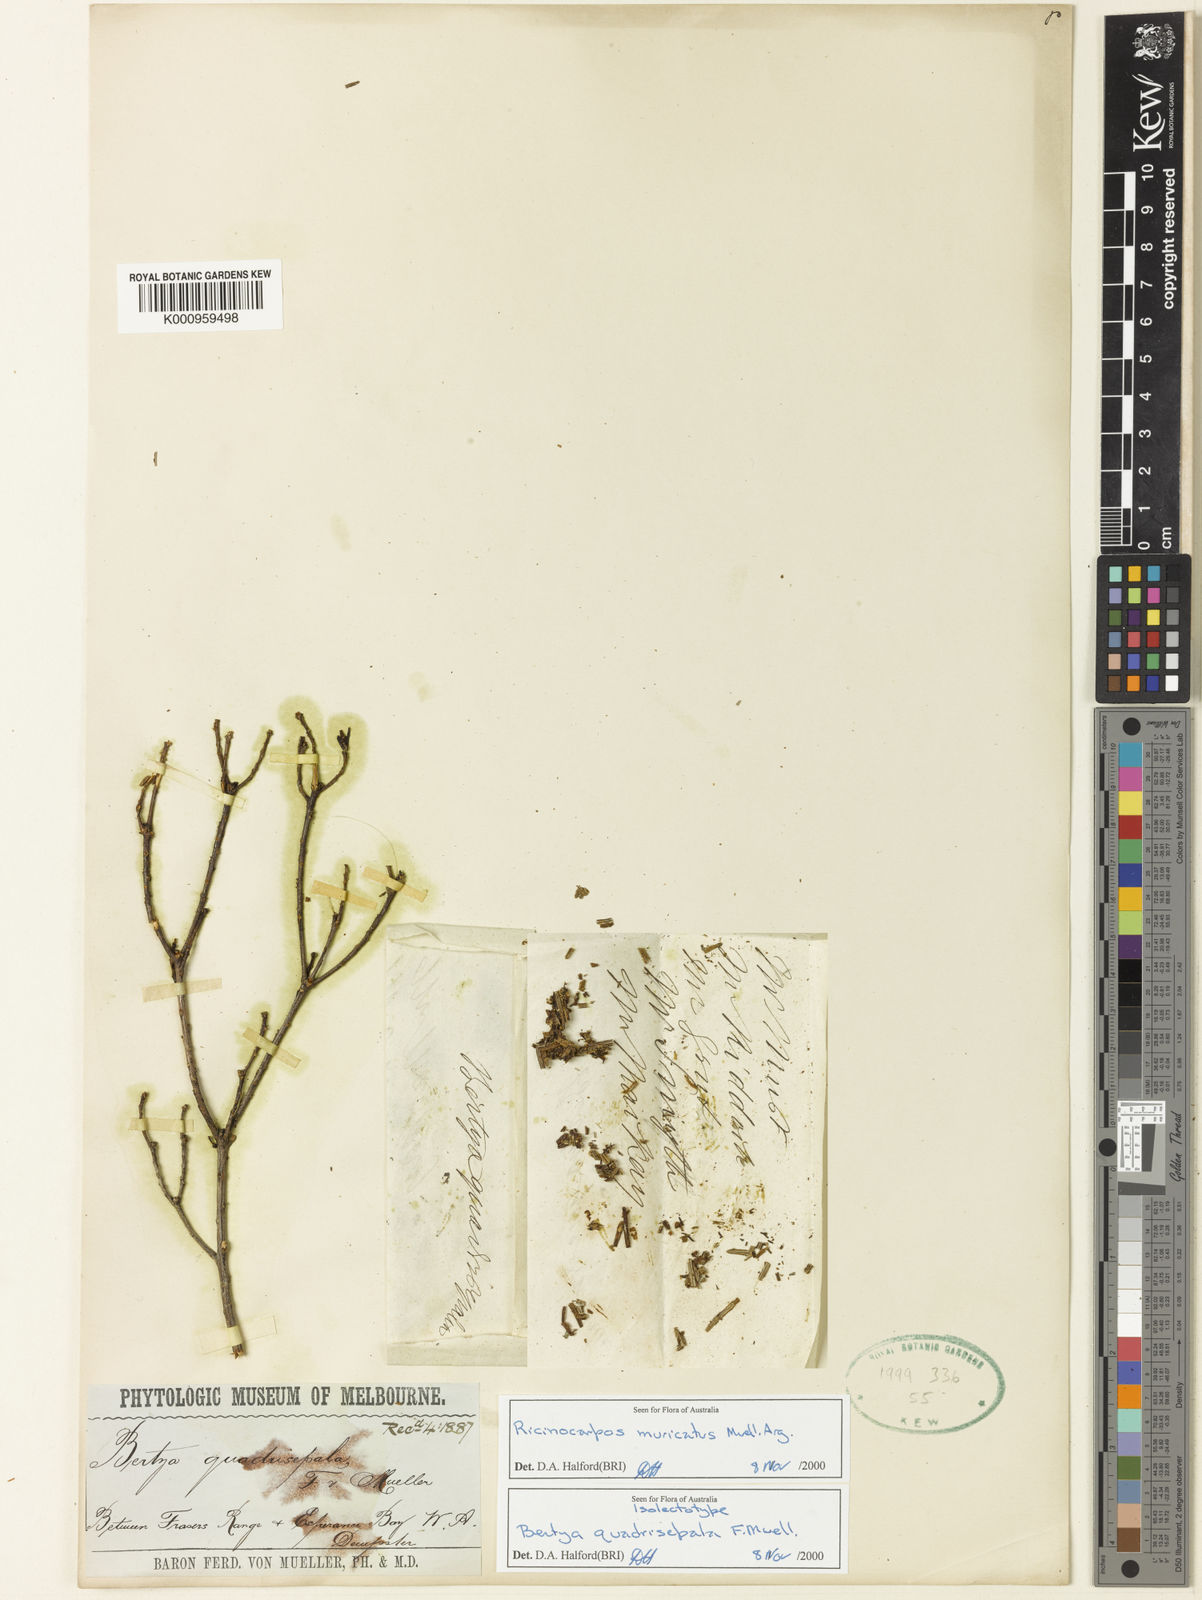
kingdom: Plantae
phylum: Tracheophyta
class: Magnoliopsida
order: Malpighiales
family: Euphorbiaceae
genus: Ricinocarpos
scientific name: Ricinocarpos muricatus
